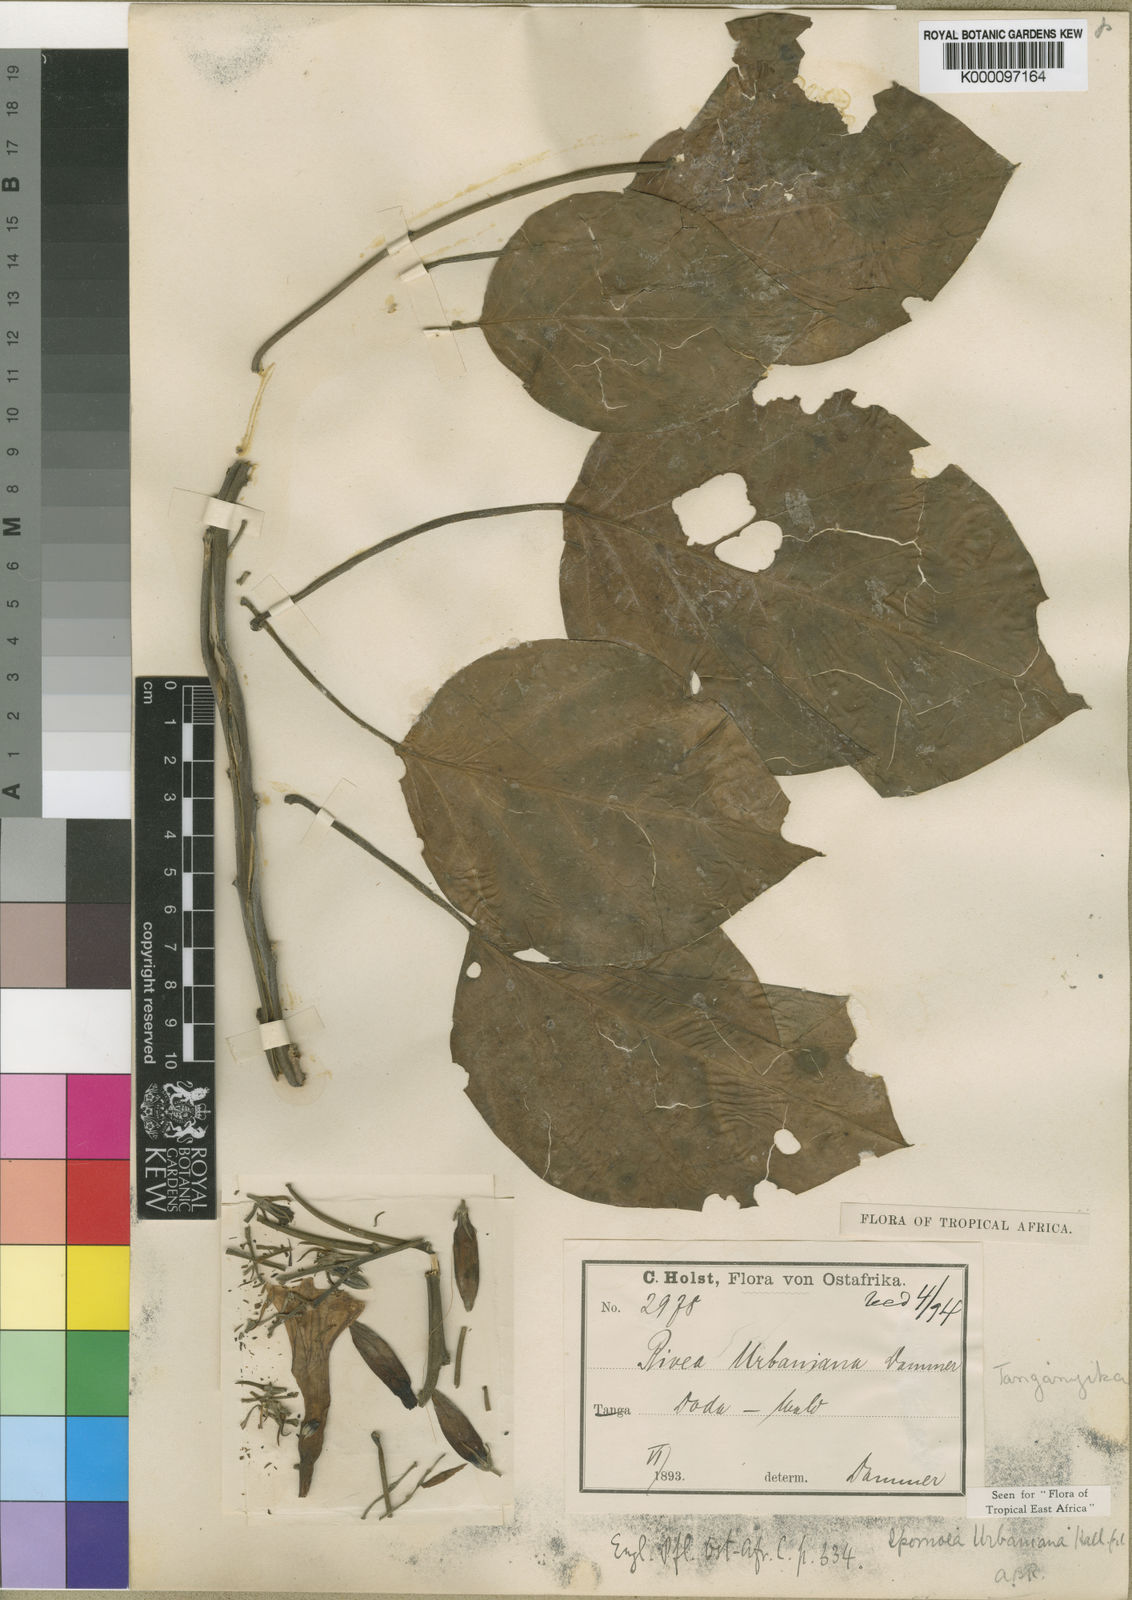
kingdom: Plantae
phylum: Tracheophyta
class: Magnoliopsida
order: Solanales
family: Convolvulaceae
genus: Ipomoea
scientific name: Ipomoea urbaniana
